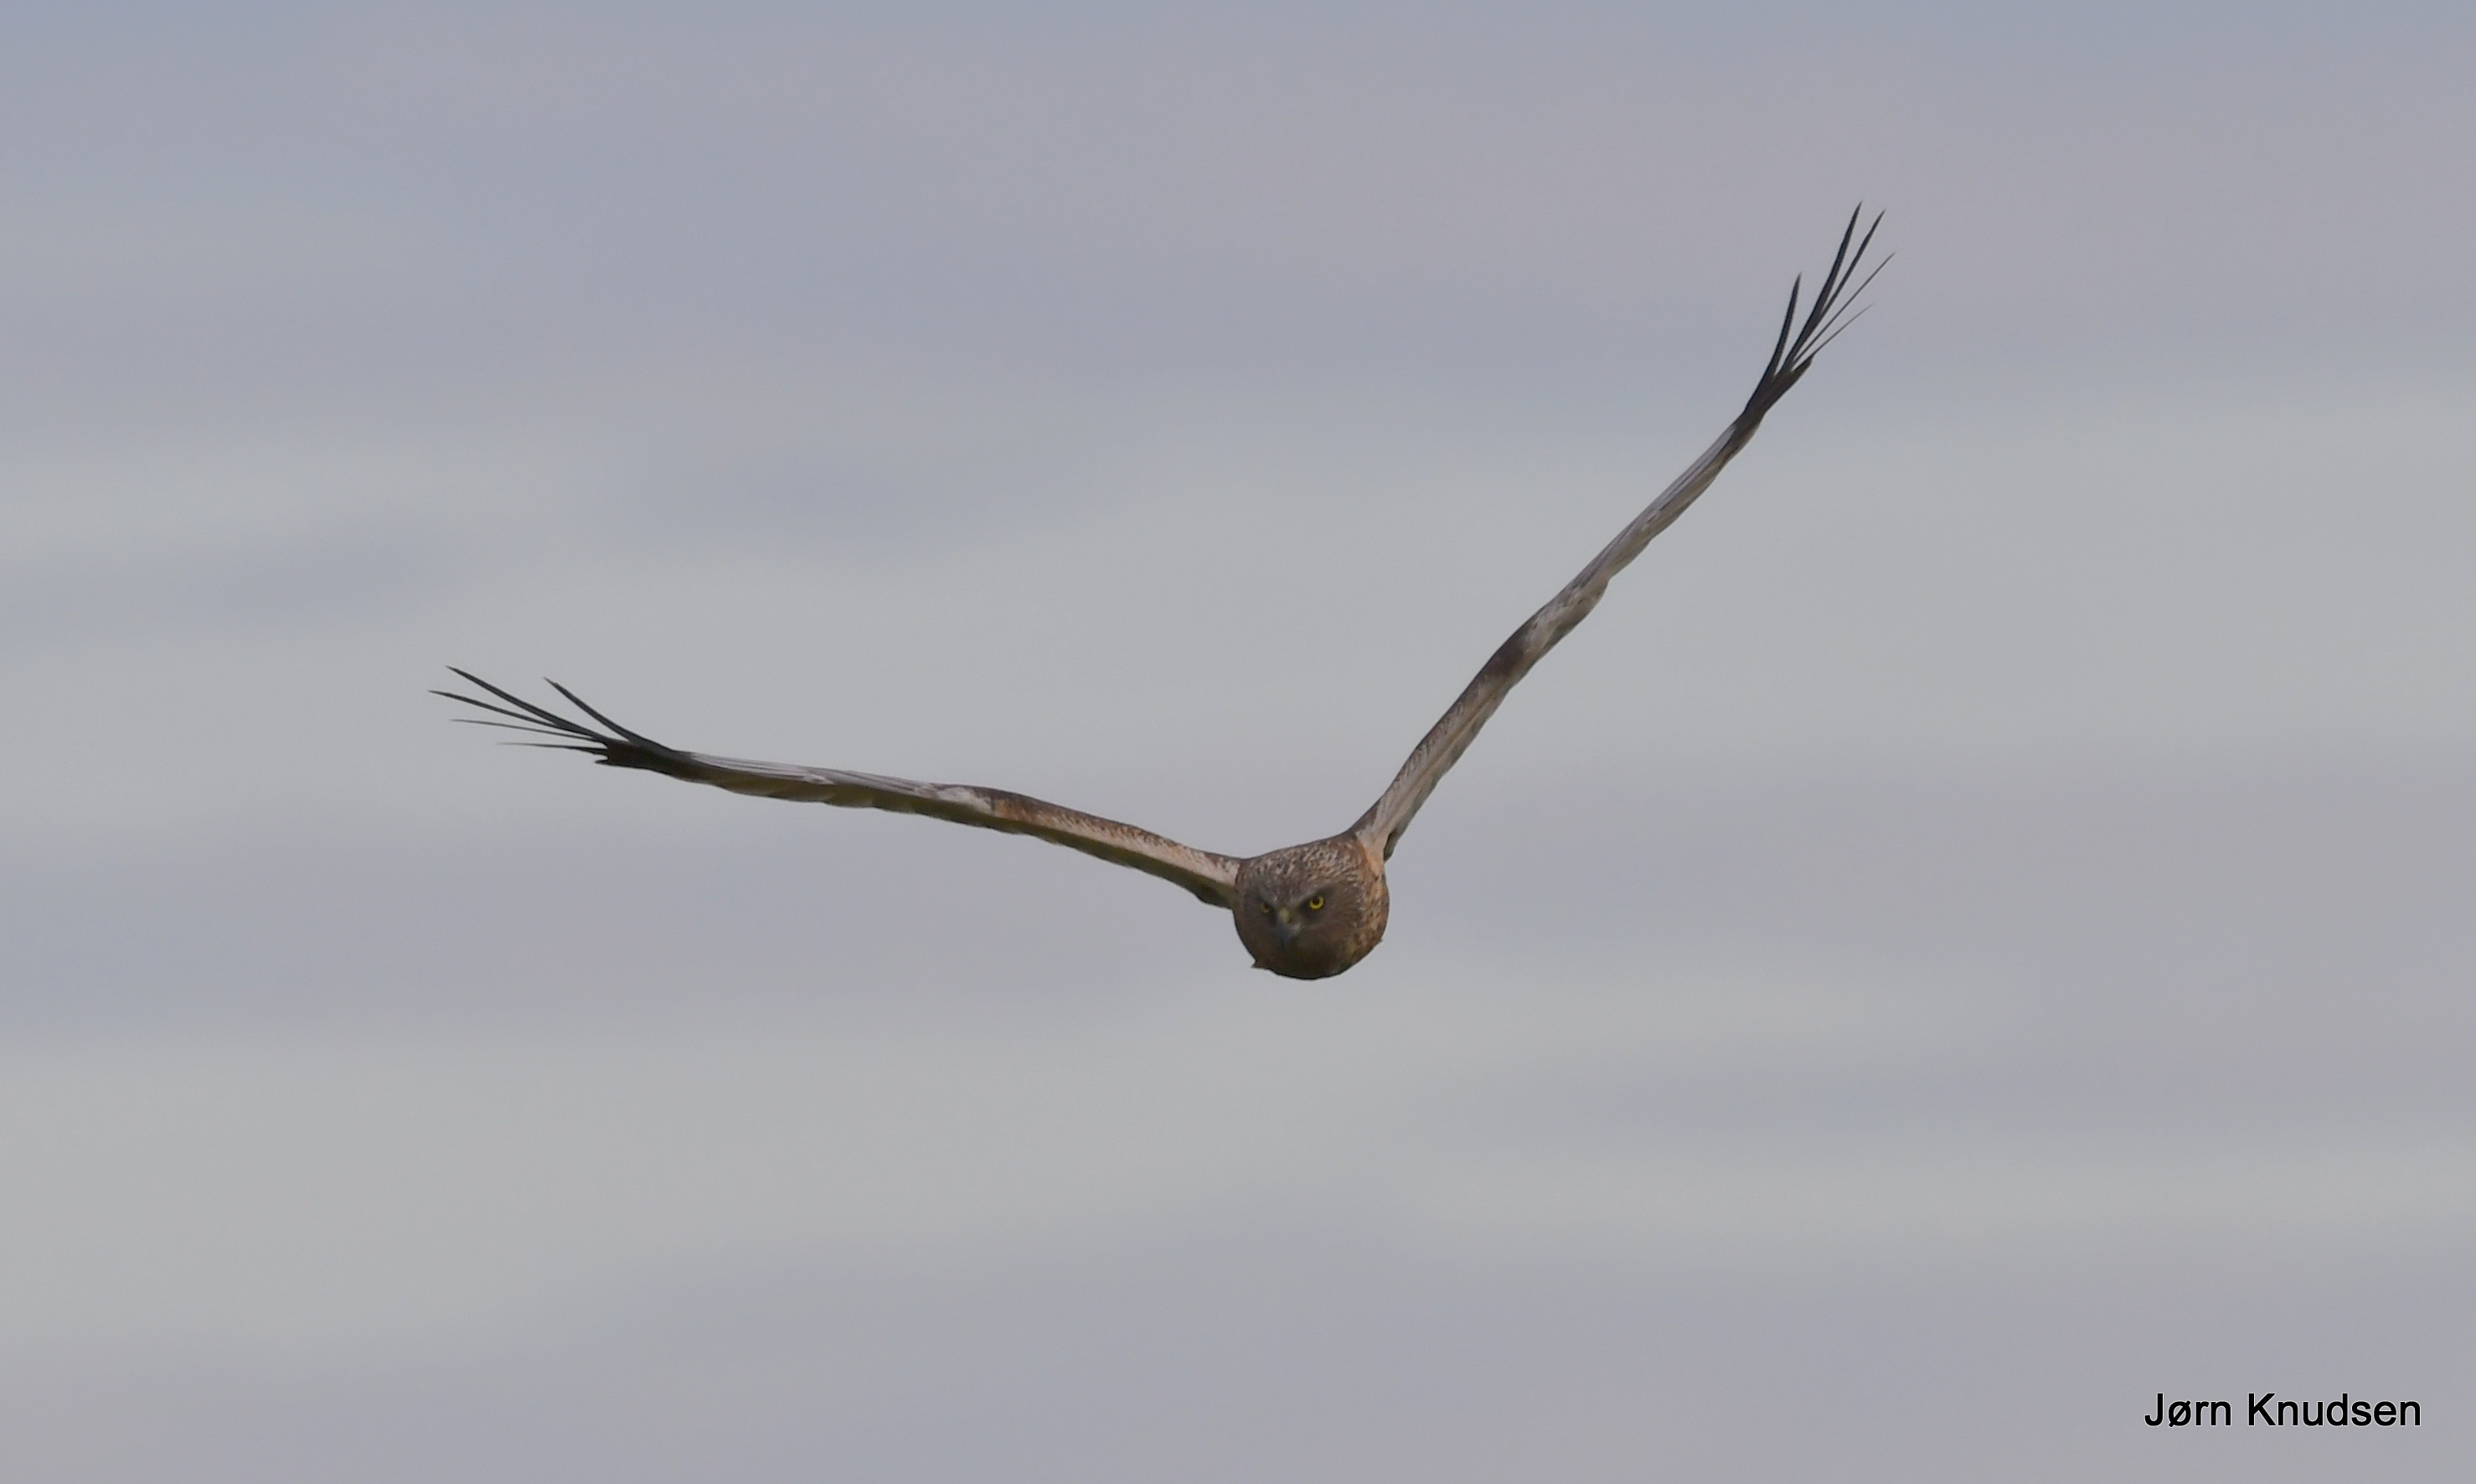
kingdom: Animalia
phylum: Chordata
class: Aves
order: Accipitriformes
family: Accipitridae
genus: Circus
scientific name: Circus aeruginosus
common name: Rørhøg
